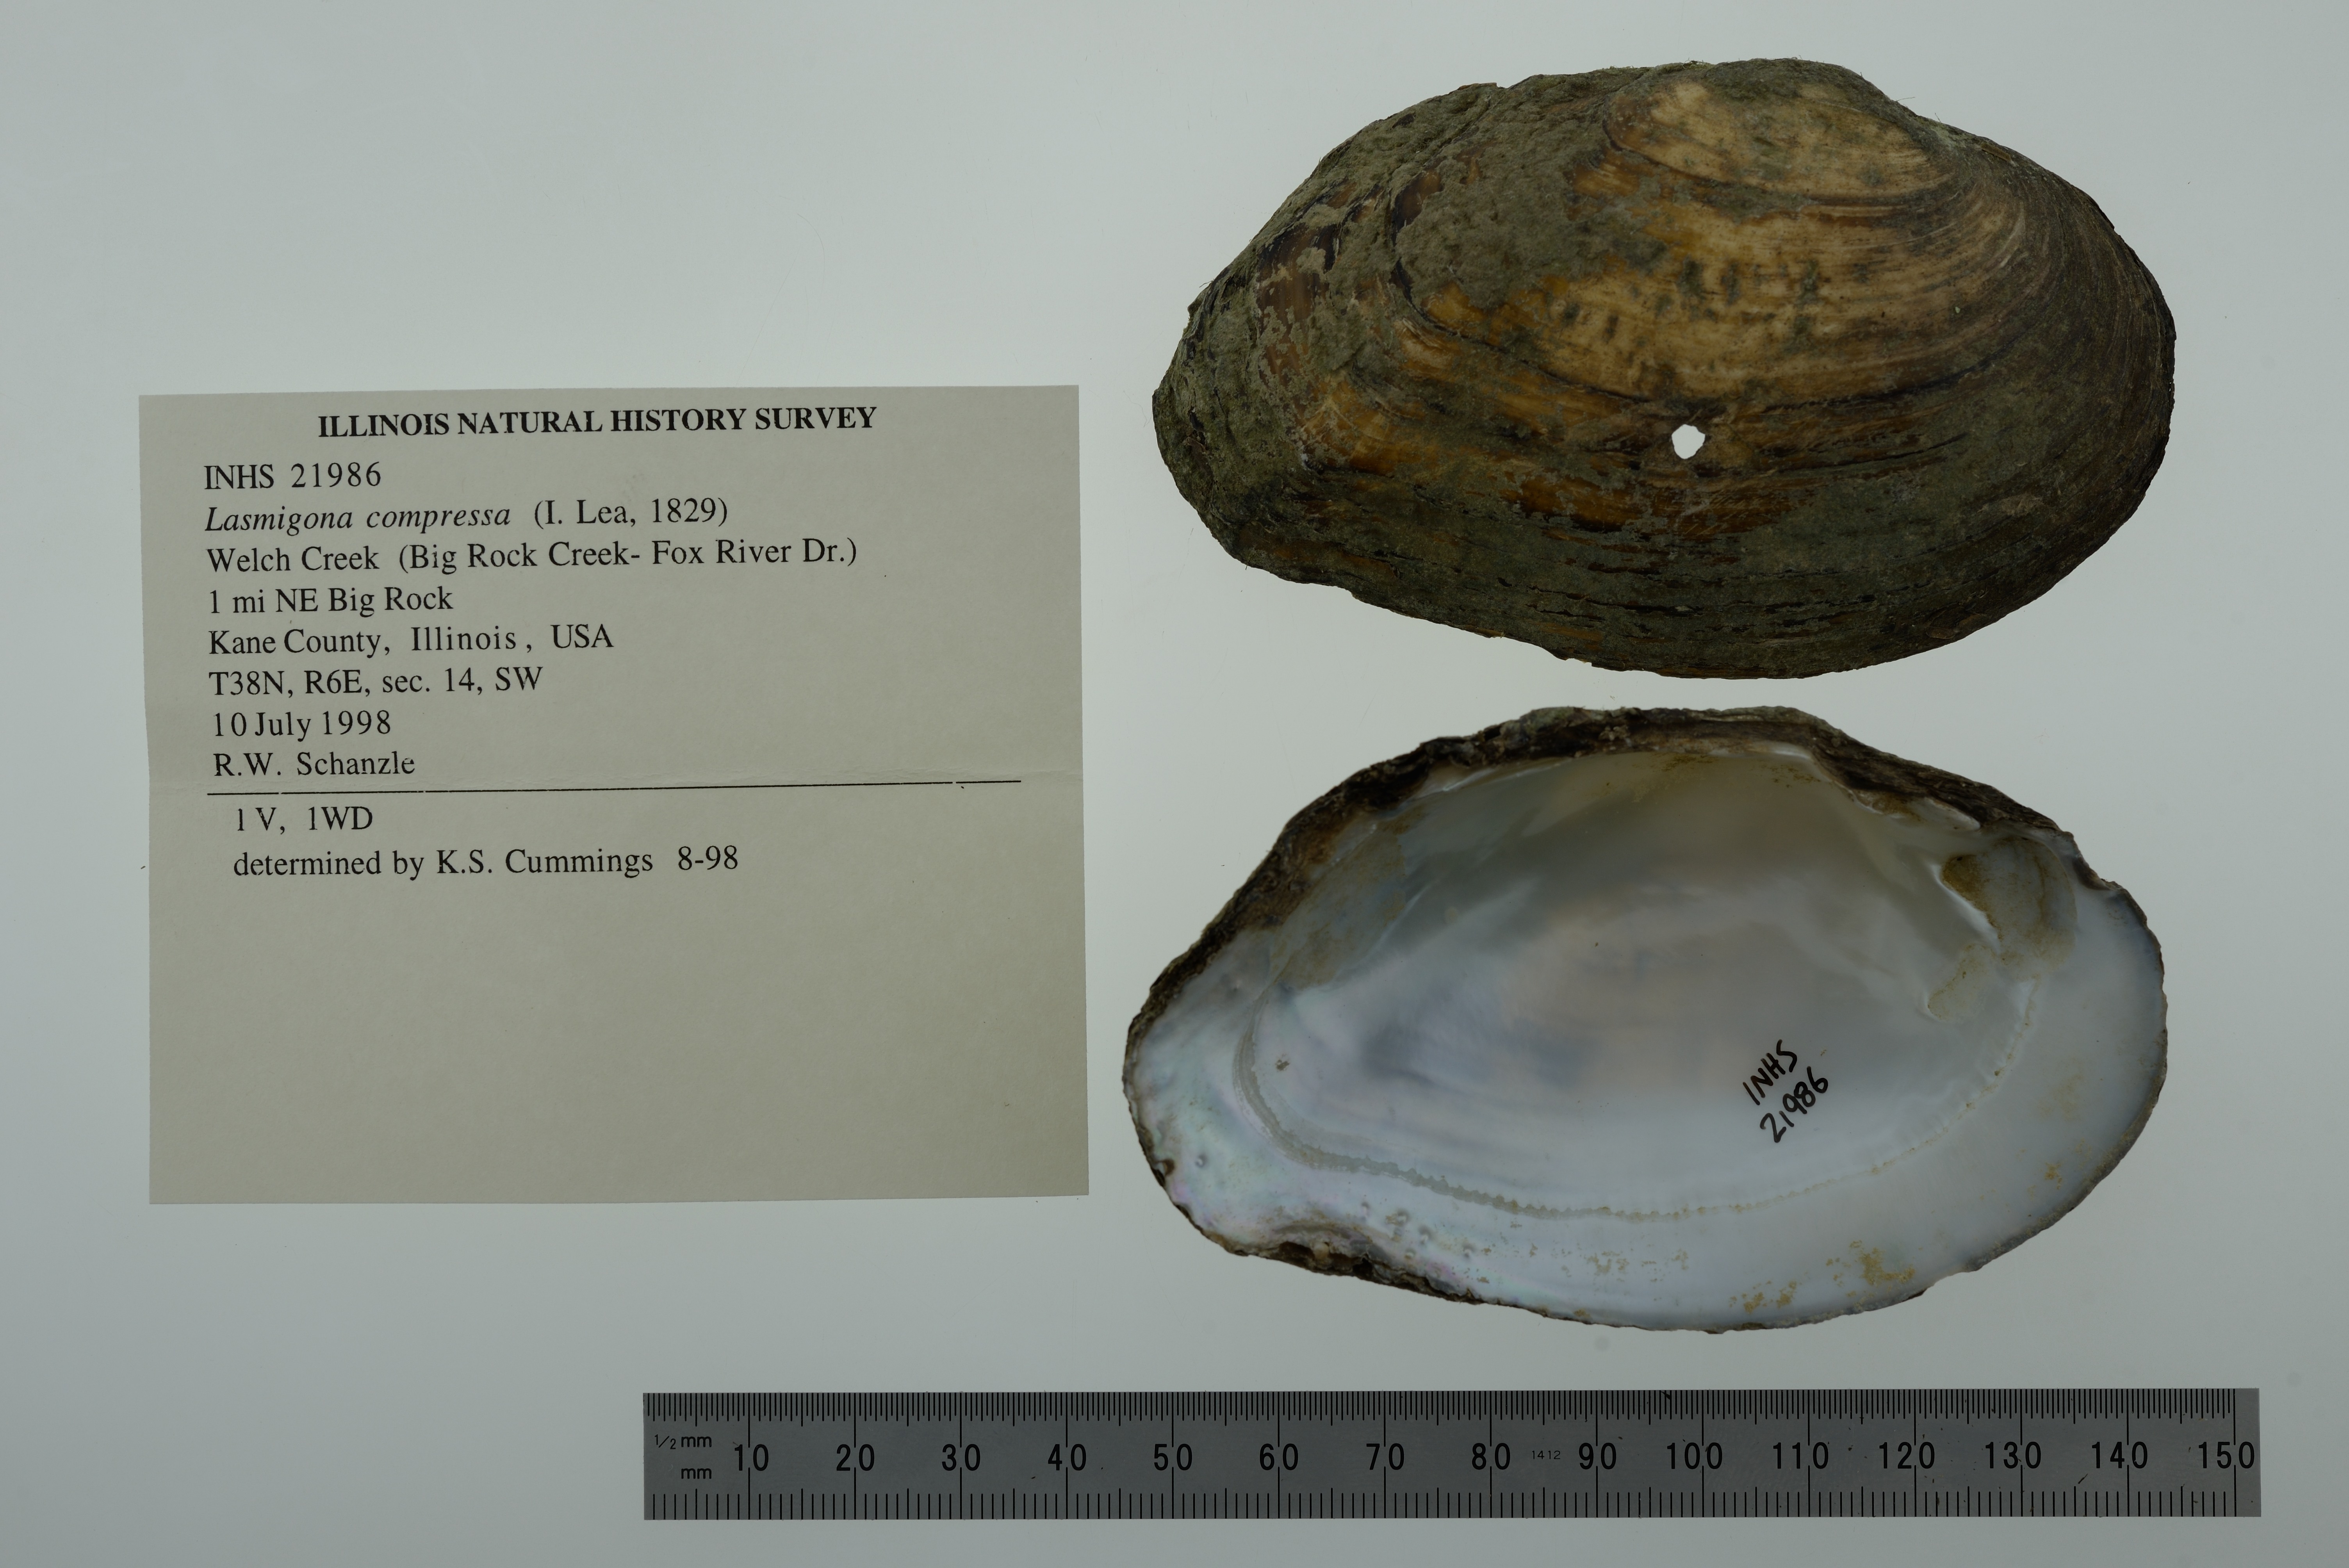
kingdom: Animalia
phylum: Mollusca
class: Bivalvia
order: Unionida
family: Unionidae
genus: Lasmigona
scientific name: Lasmigona compressa
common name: Creek heelsplitter
